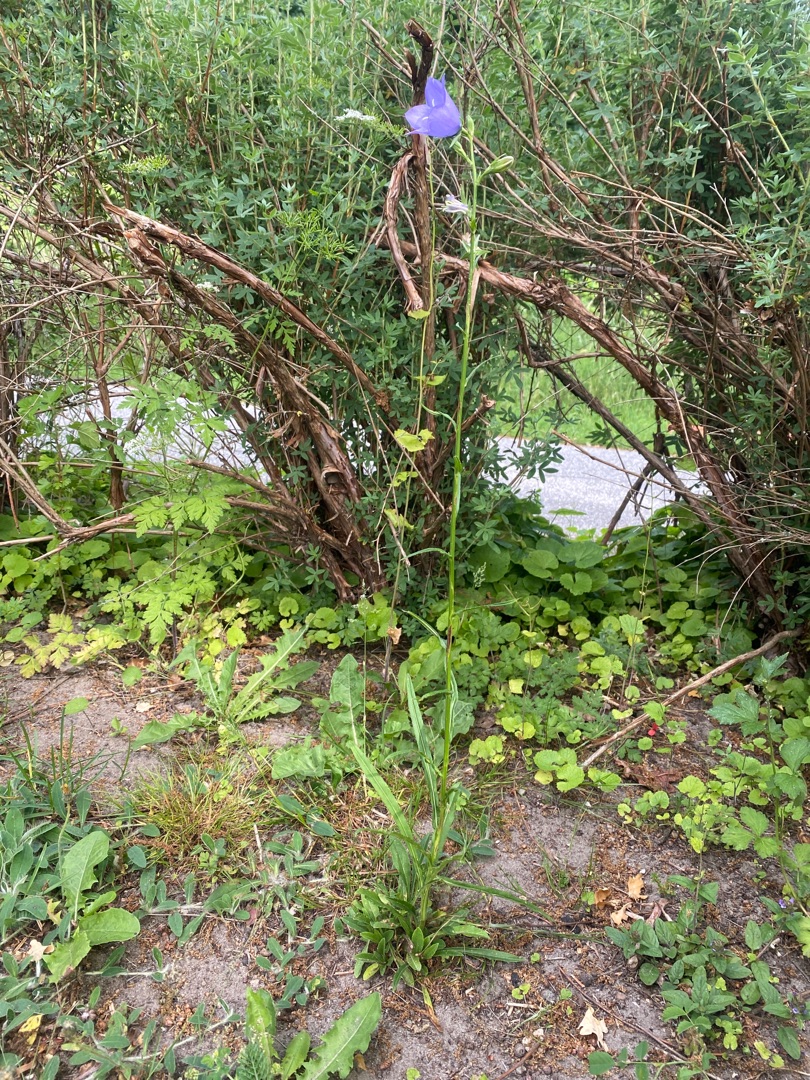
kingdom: Plantae
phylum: Tracheophyta
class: Magnoliopsida
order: Asterales
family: Campanulaceae
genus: Campanula
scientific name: Campanula persicifolia
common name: Smalbladet klokke
